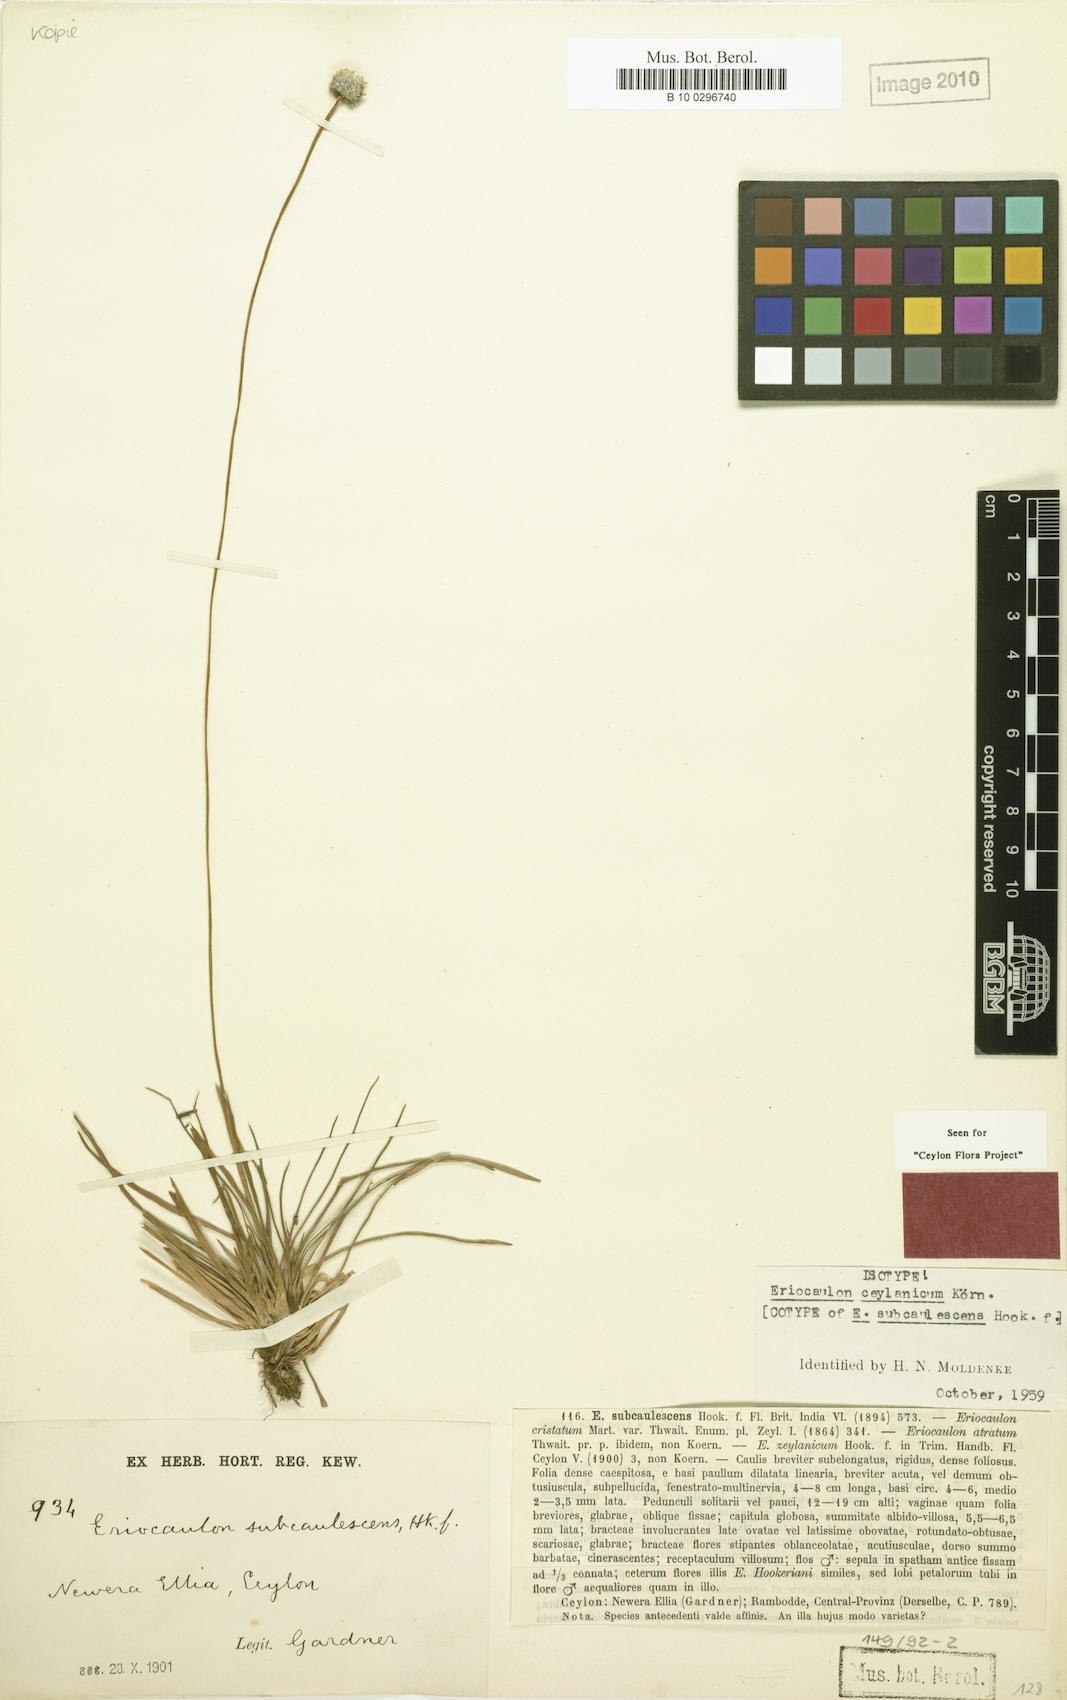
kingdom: Plantae
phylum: Tracheophyta
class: Liliopsida
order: Poales
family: Eriocaulaceae
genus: Eriocaulon
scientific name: Eriocaulon ceylanicum
